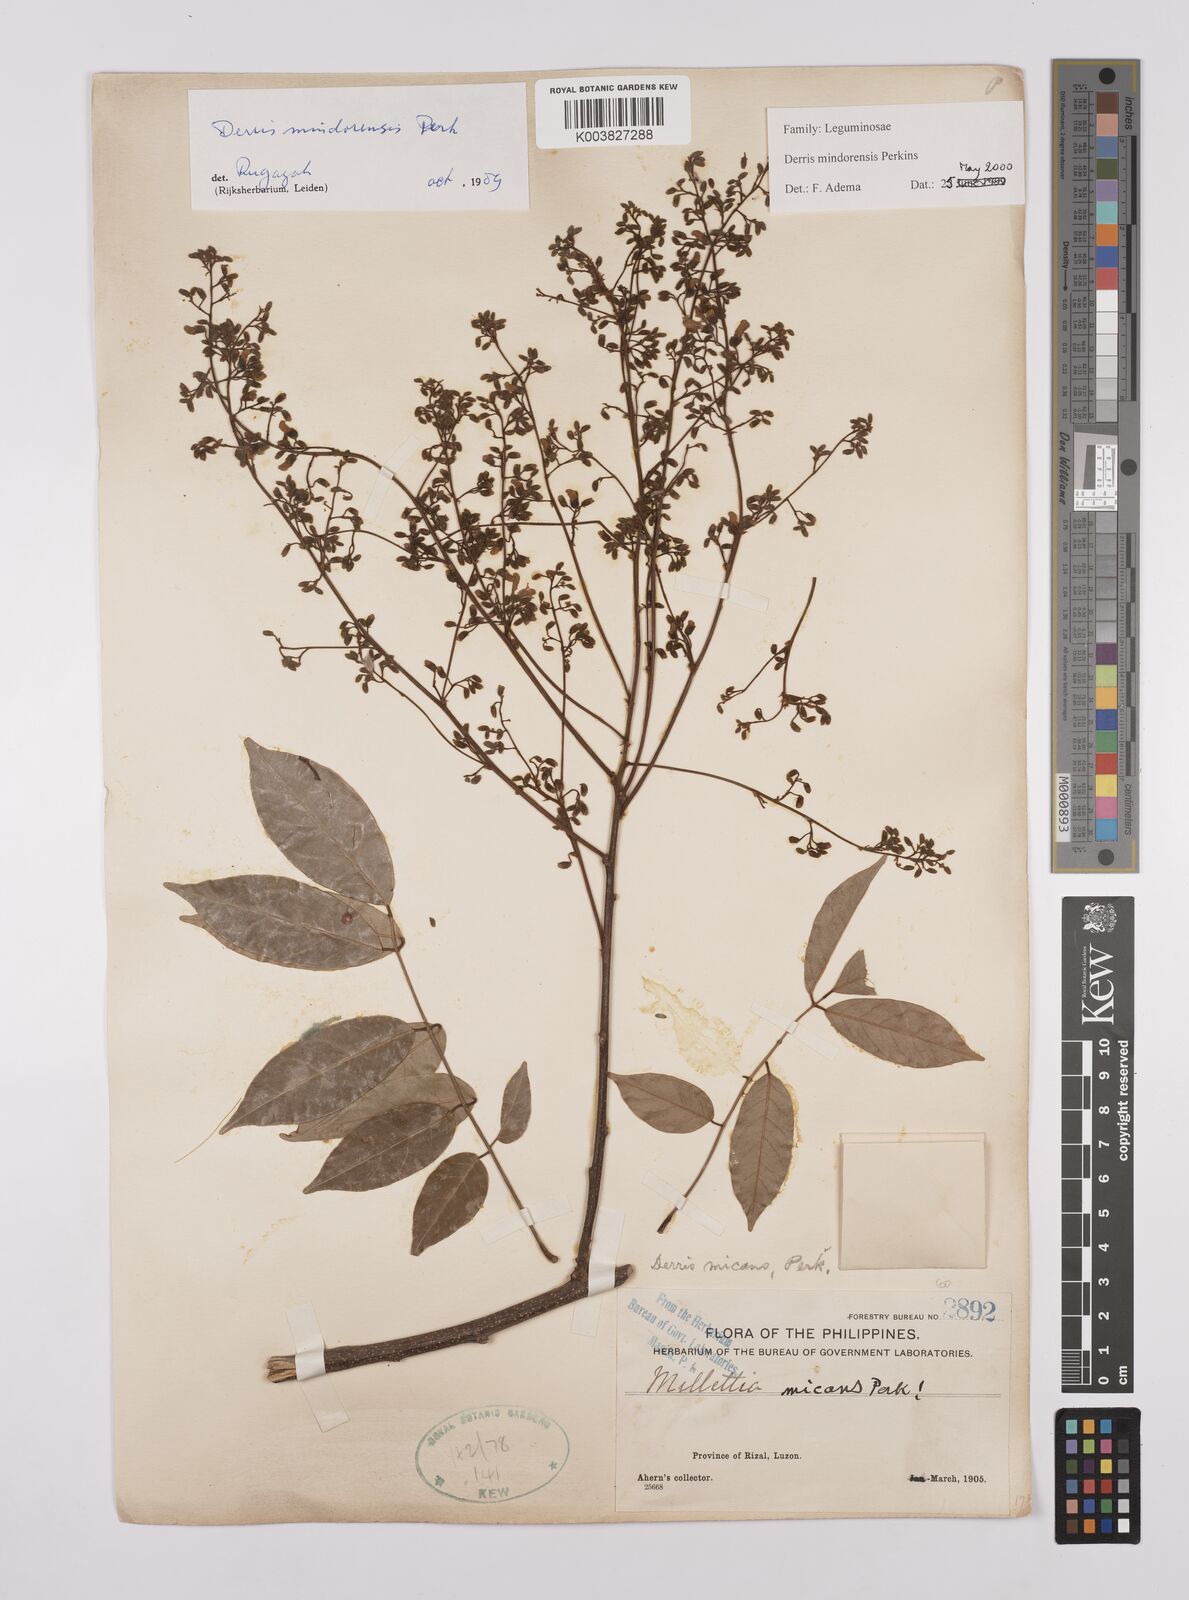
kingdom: Plantae
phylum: Tracheophyta
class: Magnoliopsida
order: Fabales
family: Fabaceae
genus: Derris
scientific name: Derris pubipetala
